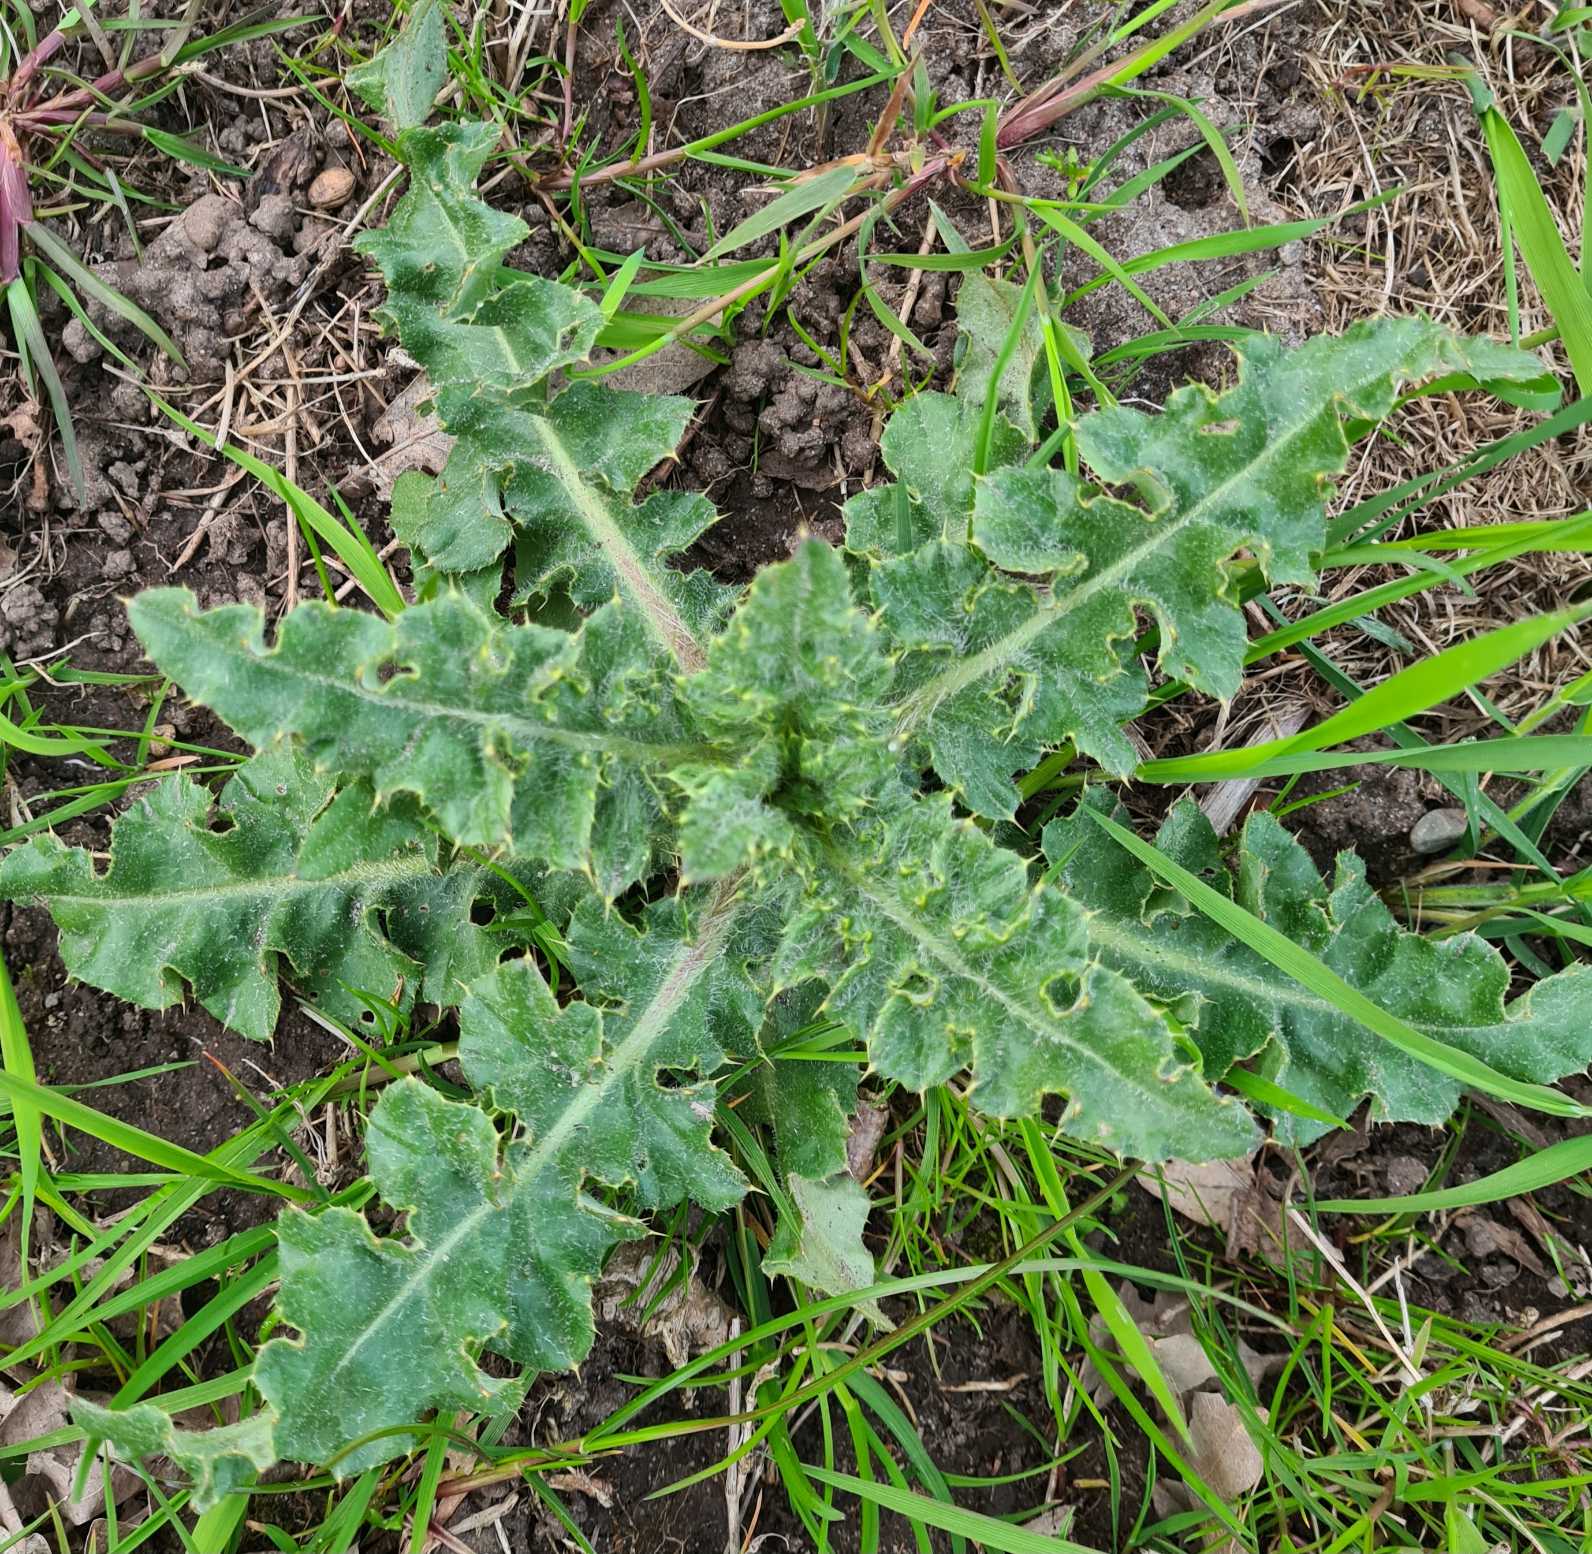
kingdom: Plantae
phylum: Tracheophyta
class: Magnoliopsida
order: Asterales
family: Asteraceae
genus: Cirsium
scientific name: Cirsium arvense
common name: Ager-tidsel
